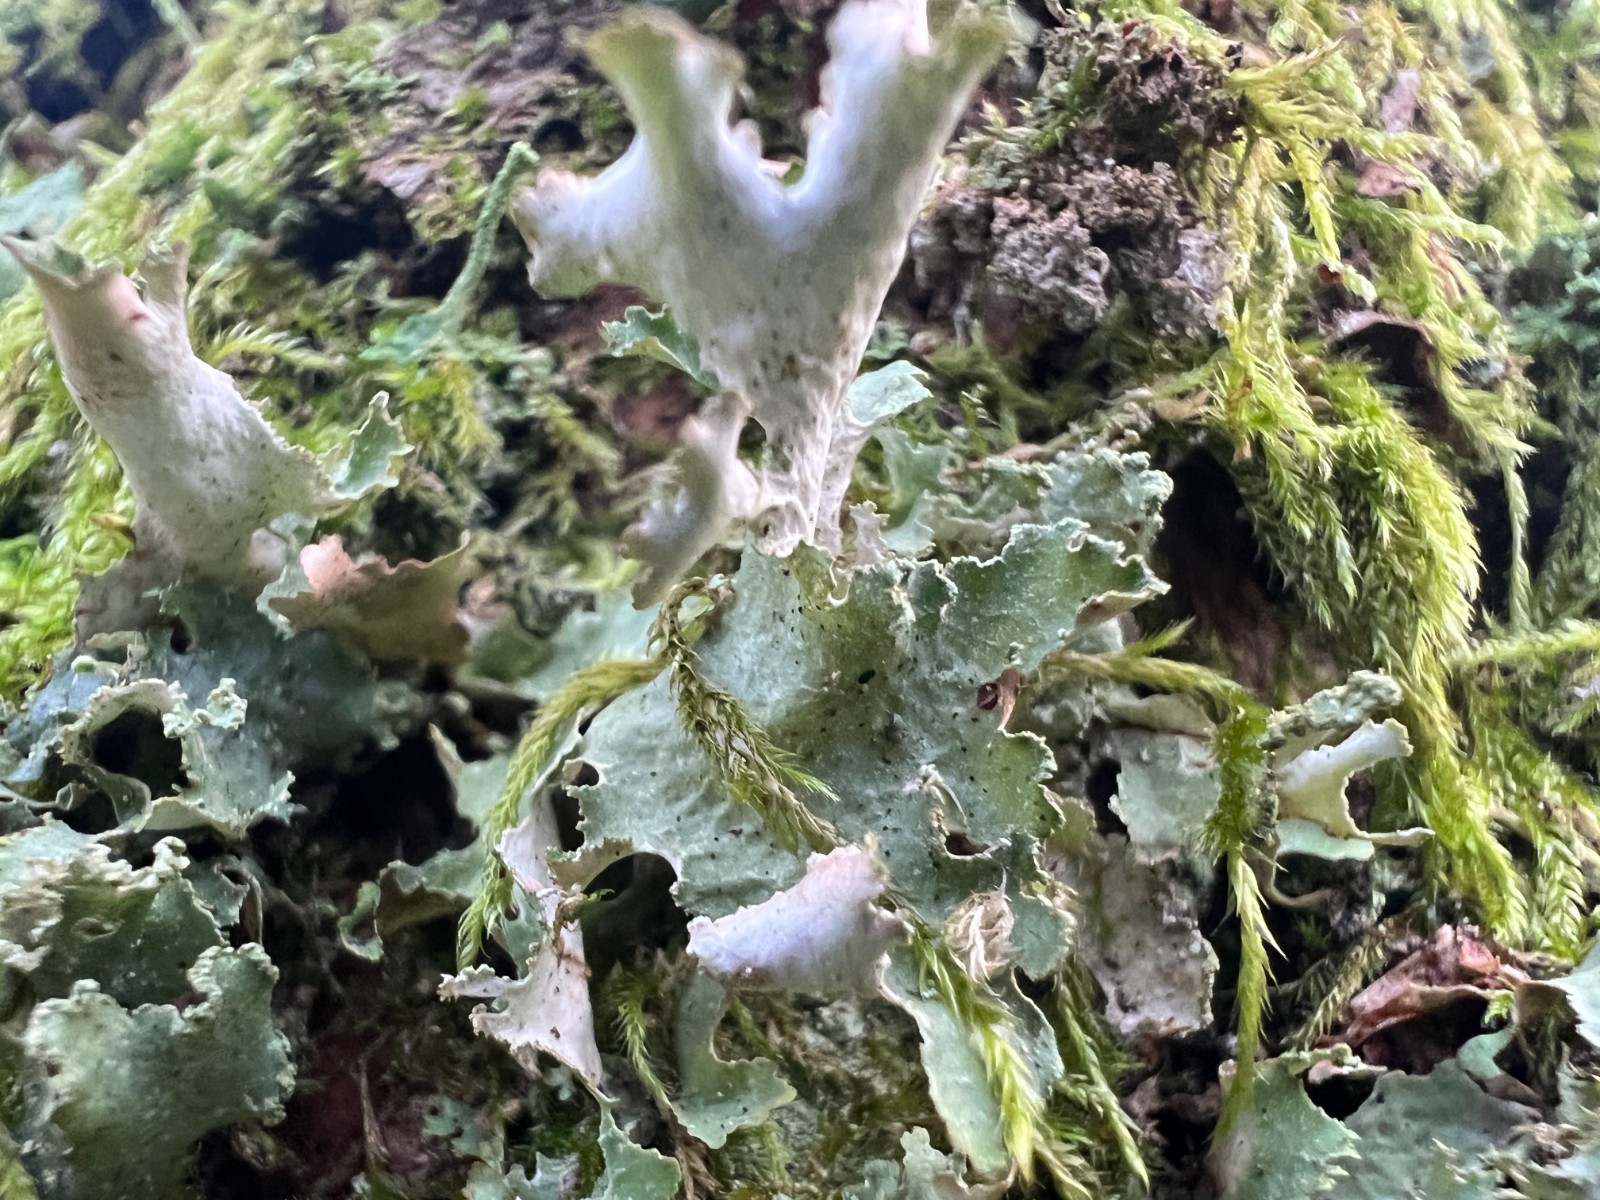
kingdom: Fungi
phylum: Ascomycota
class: Lecanoromycetes
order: Lecanorales
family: Parmeliaceae
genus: Platismatia
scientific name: Platismatia glauca
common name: blågrå papirlav
